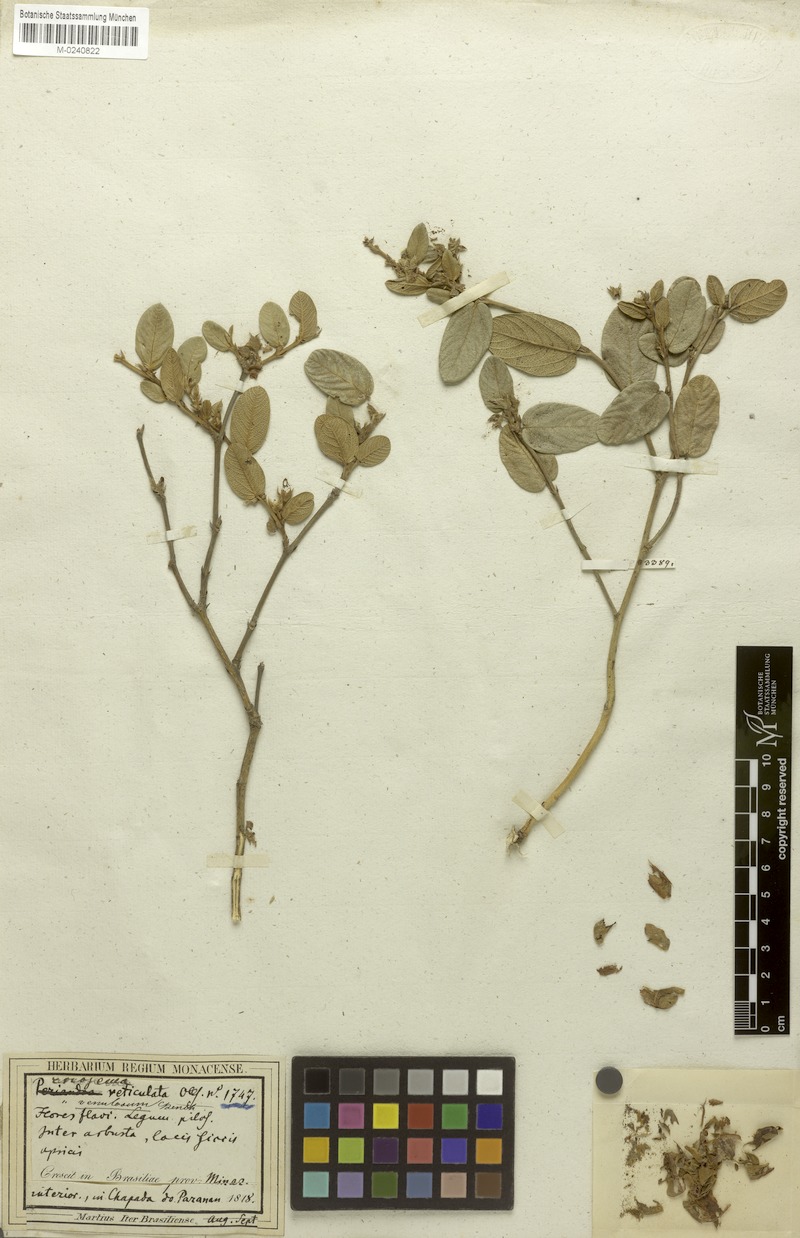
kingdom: Plantae
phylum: Tracheophyta
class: Magnoliopsida
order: Fabales
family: Fabaceae
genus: Eriosema
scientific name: Eriosema venulosum
